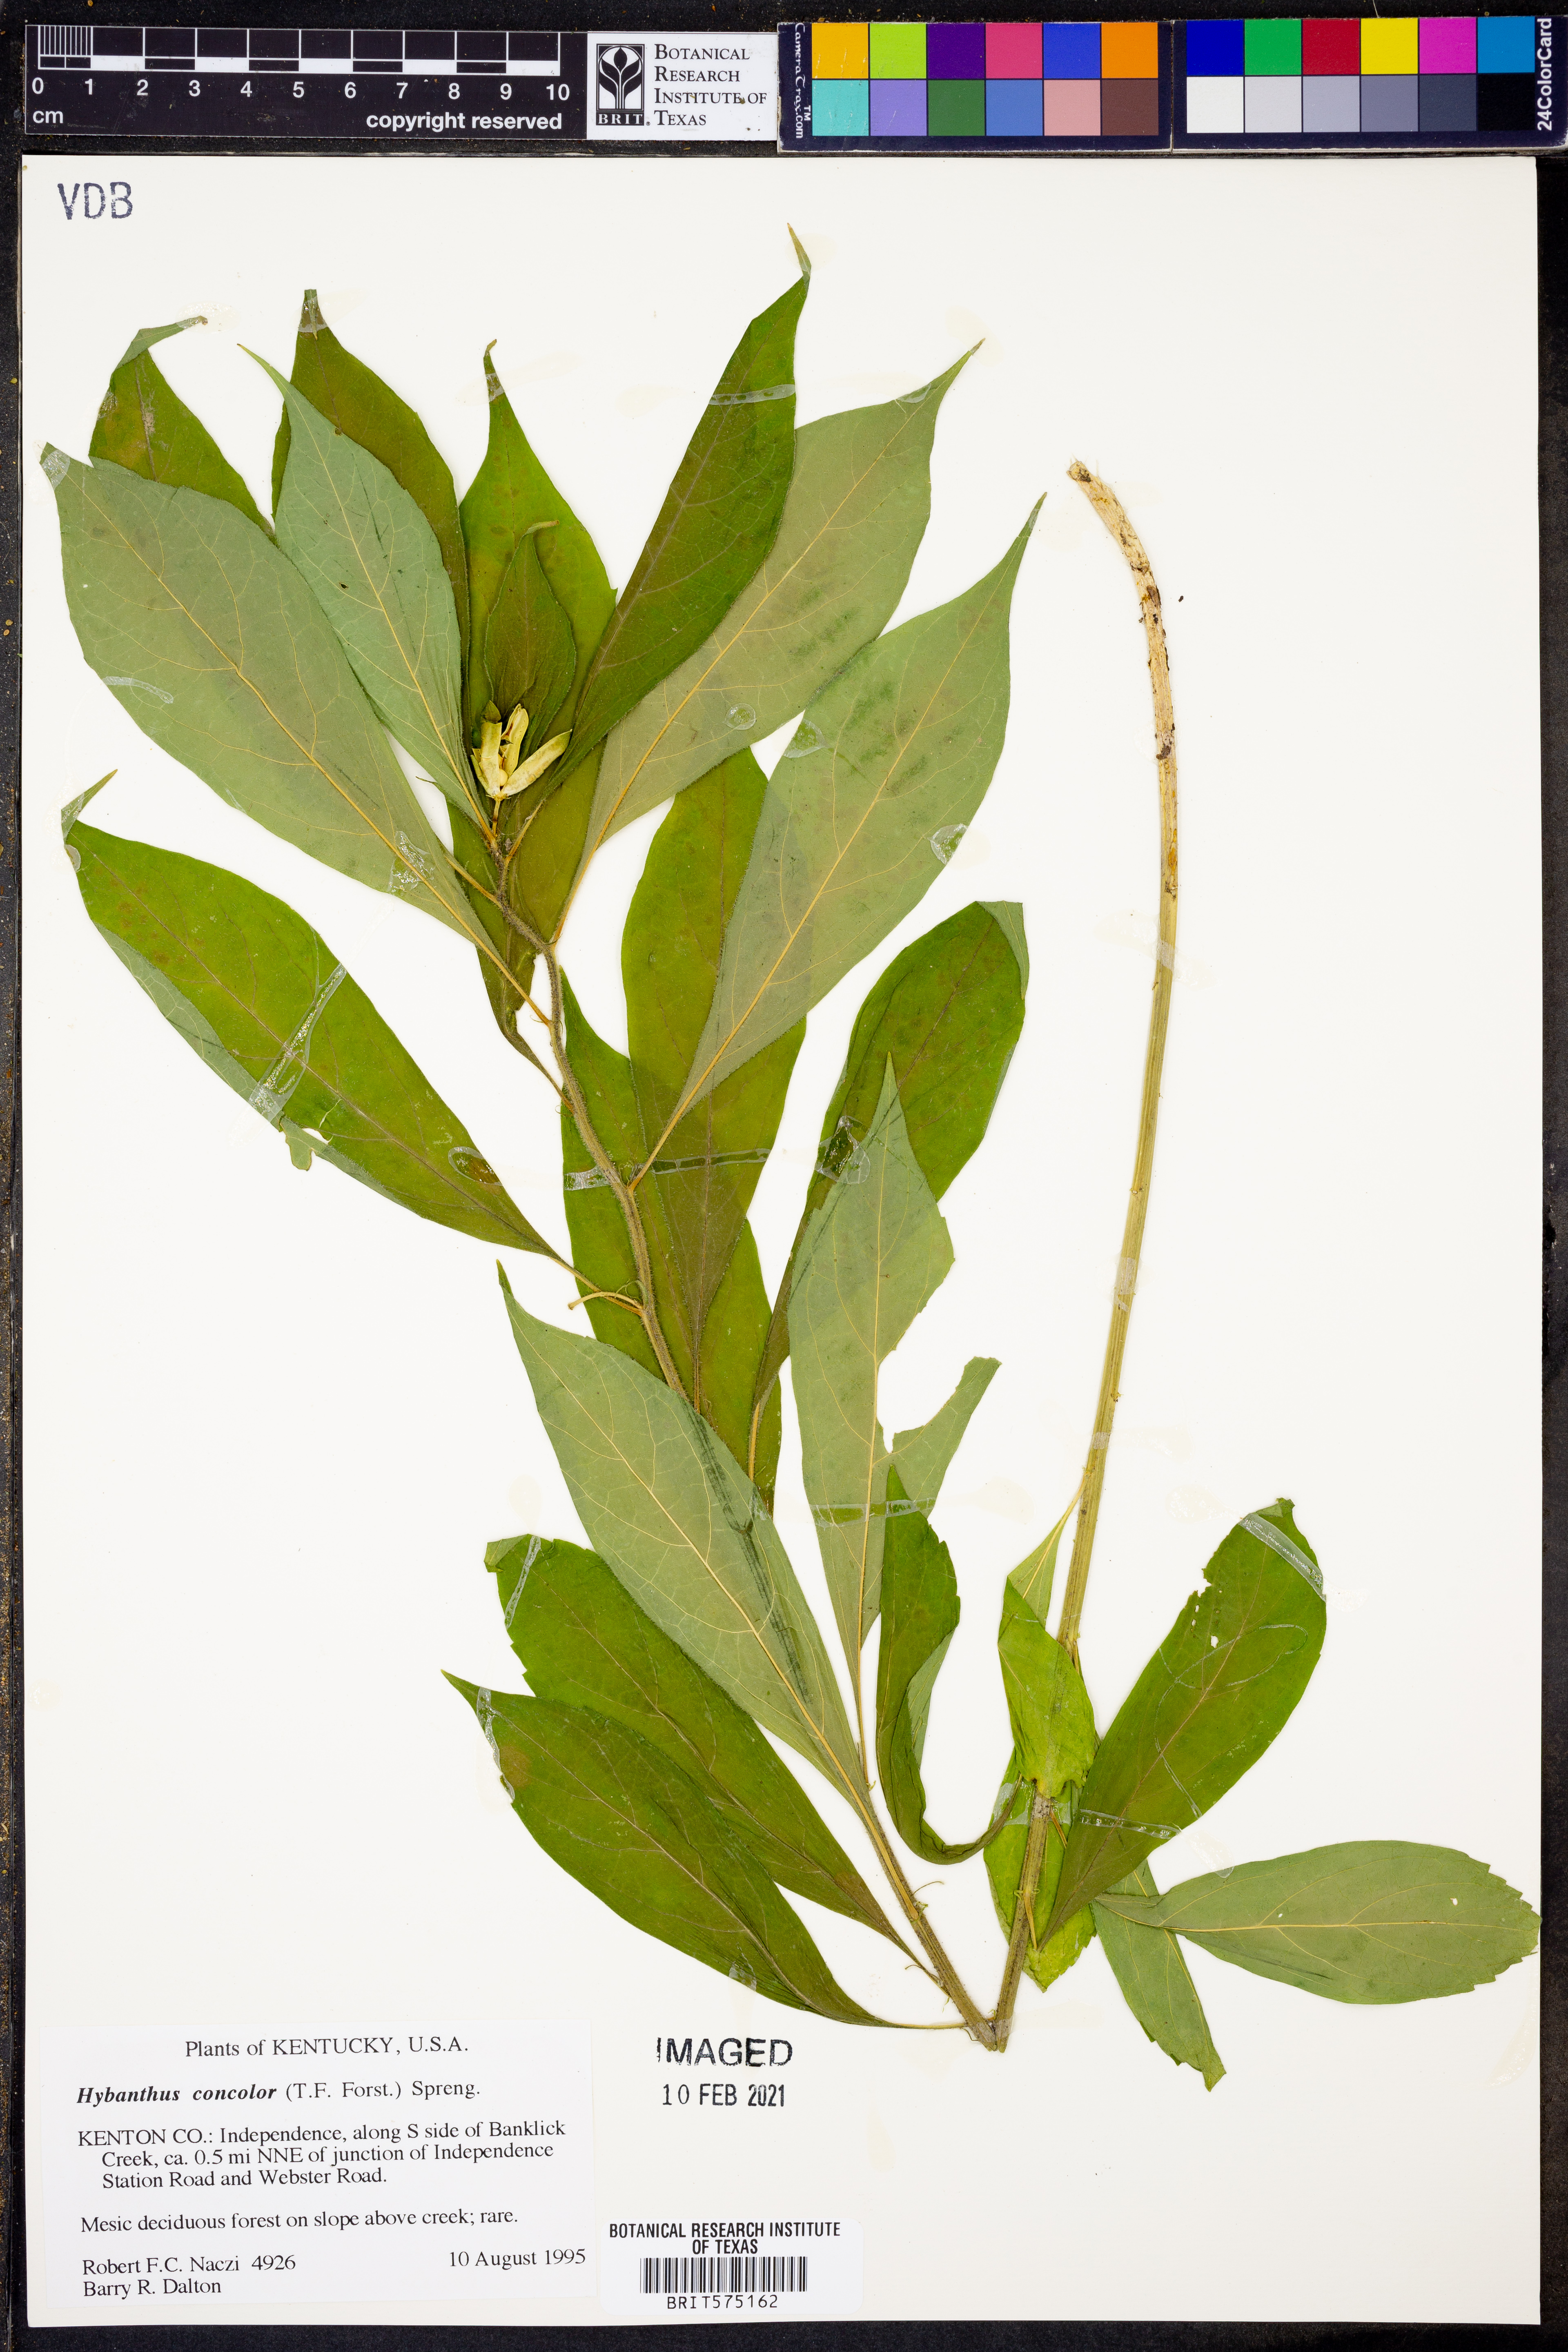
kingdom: Plantae
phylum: Tracheophyta
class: Magnoliopsida
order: Malpighiales
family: Violaceae
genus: Cubelium
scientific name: Cubelium concolor
